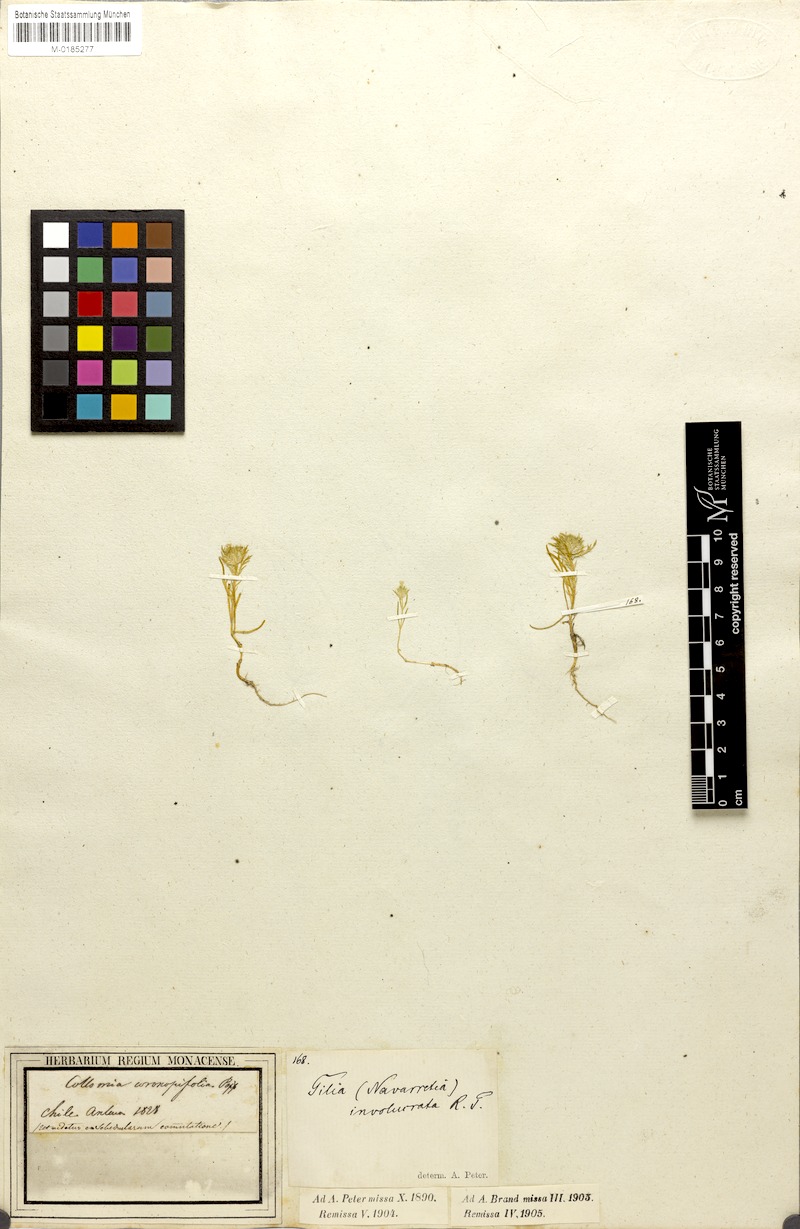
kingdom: Plantae
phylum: Tracheophyta
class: Magnoliopsida
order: Ericales
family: Polemoniaceae
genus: Navarretia
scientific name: Navarretia involucrata
